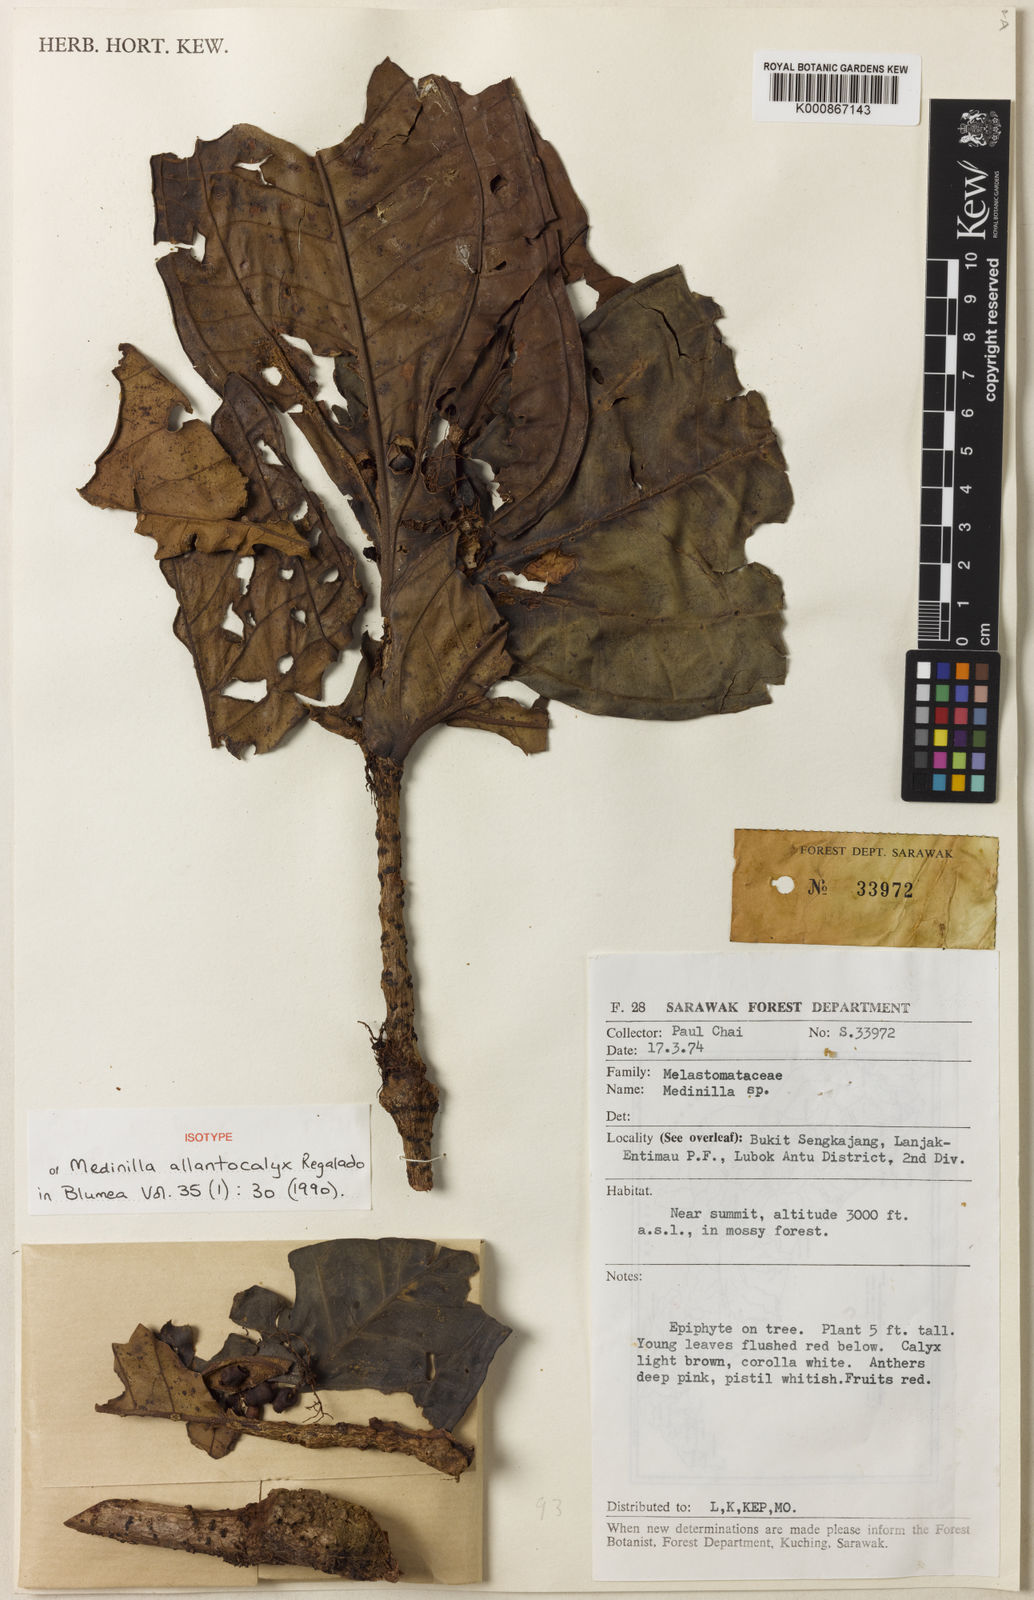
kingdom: Plantae
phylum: Tracheophyta
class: Magnoliopsida
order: Myrtales
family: Melastomataceae
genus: Medinilla
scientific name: Medinilla allantocalyx
